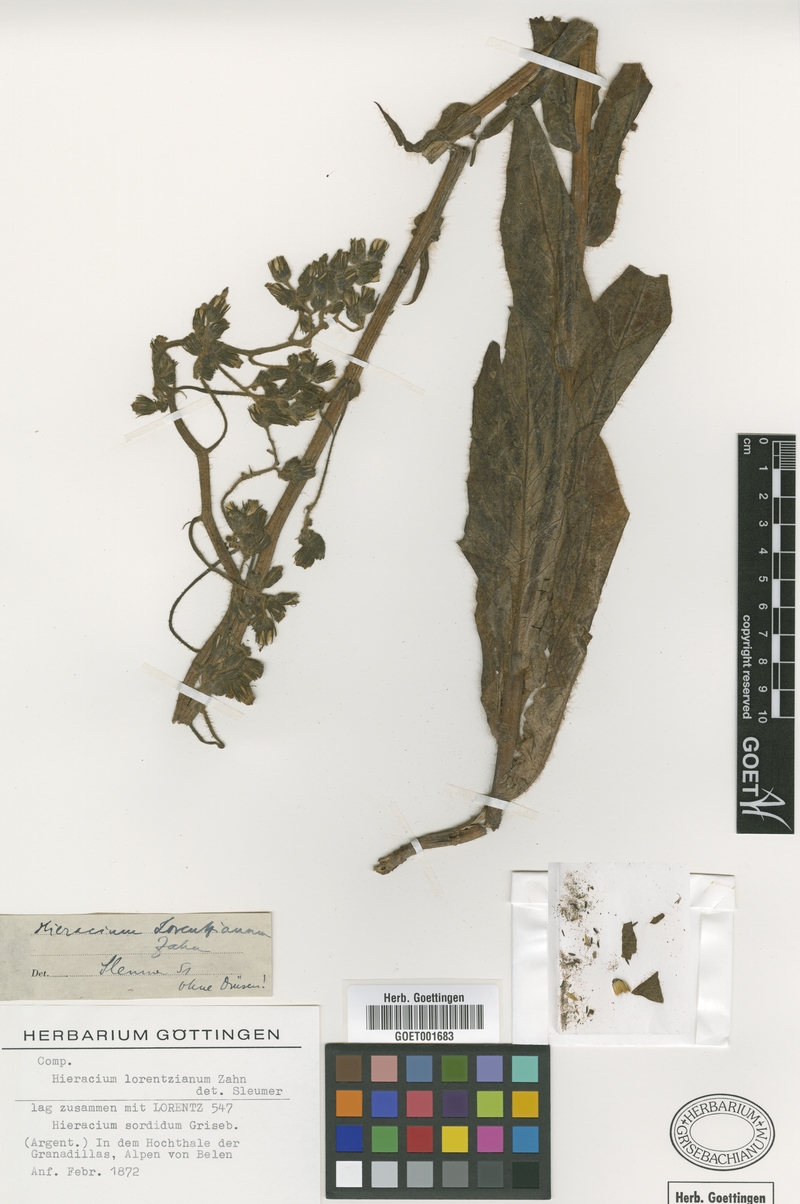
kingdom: Plantae
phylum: Tracheophyta
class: Magnoliopsida
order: Asterales
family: Asteraceae
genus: Hieracium
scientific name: Hieracium lorentzianum
